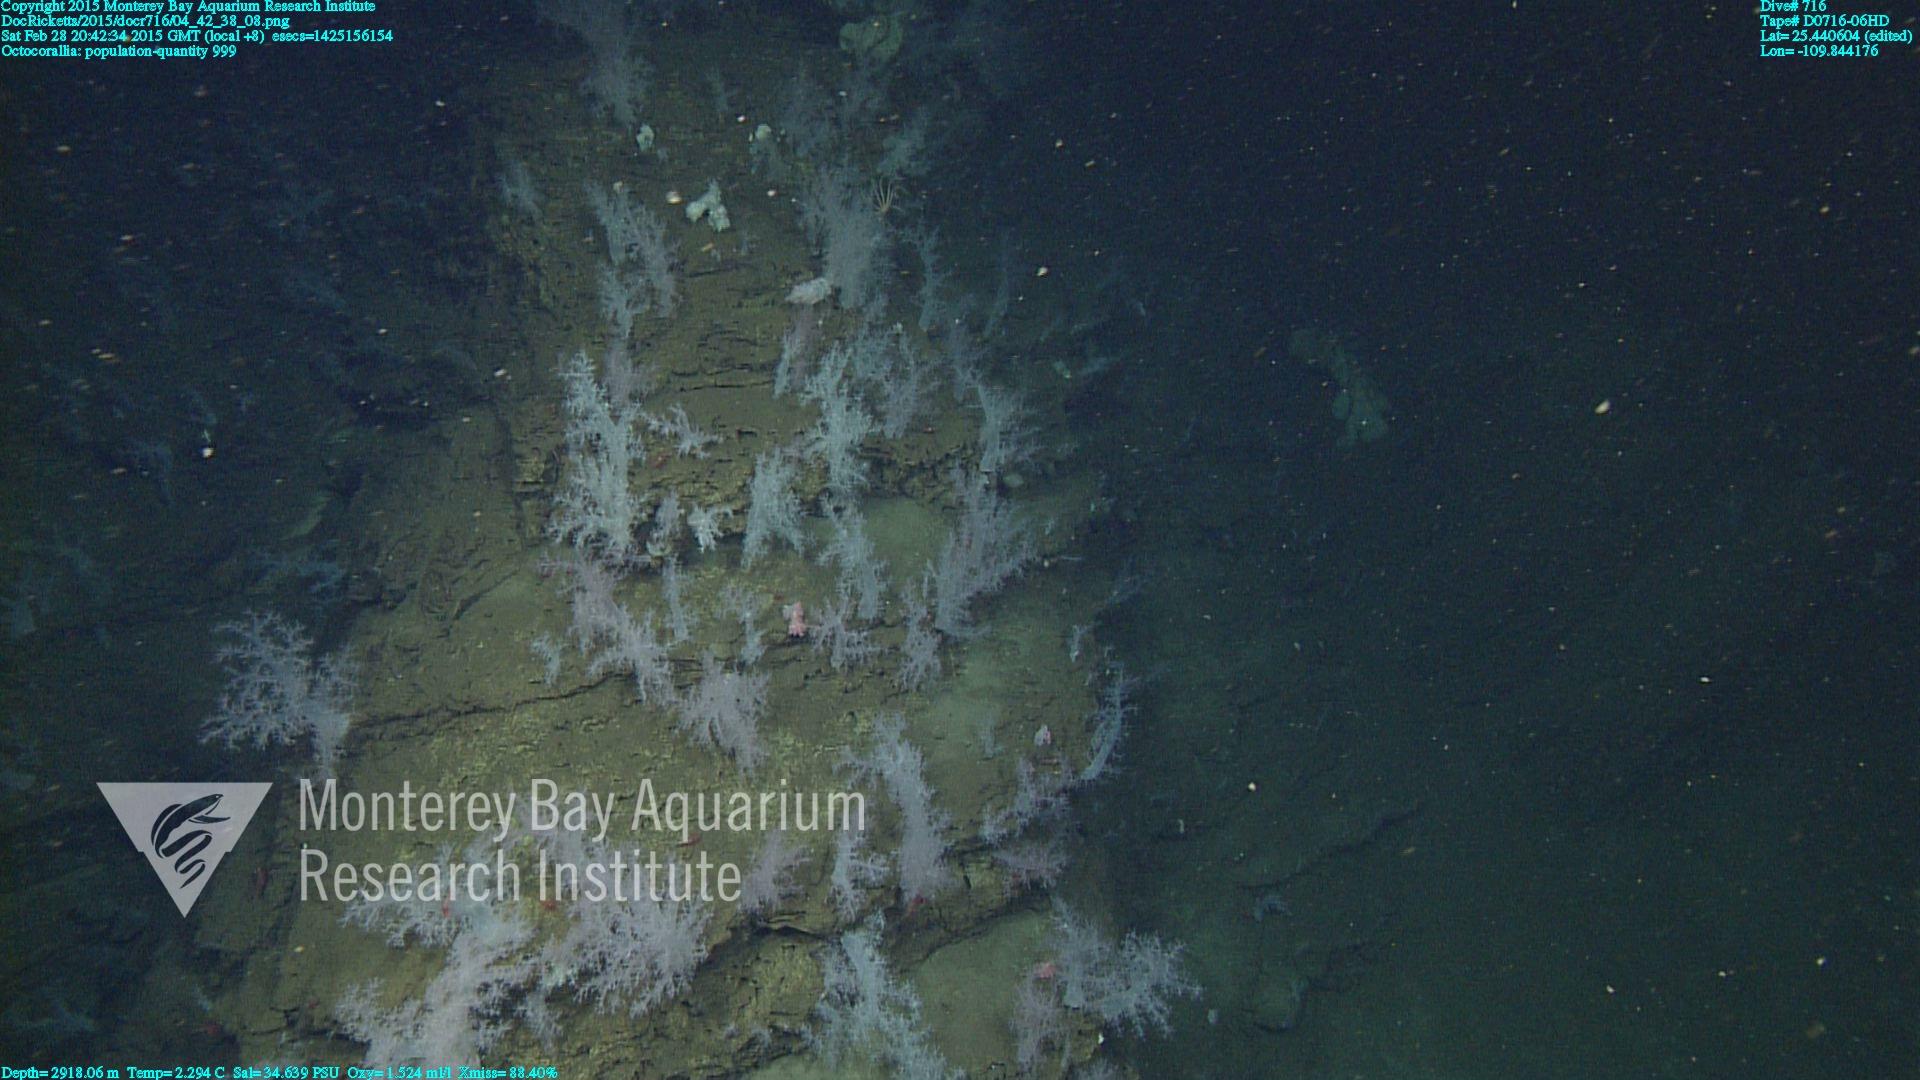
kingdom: Animalia
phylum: Cnidaria
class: Anthozoa
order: Malacalcyonacea
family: Alcyoniidae
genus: Gersemia
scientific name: Gersemia juliepackardae
